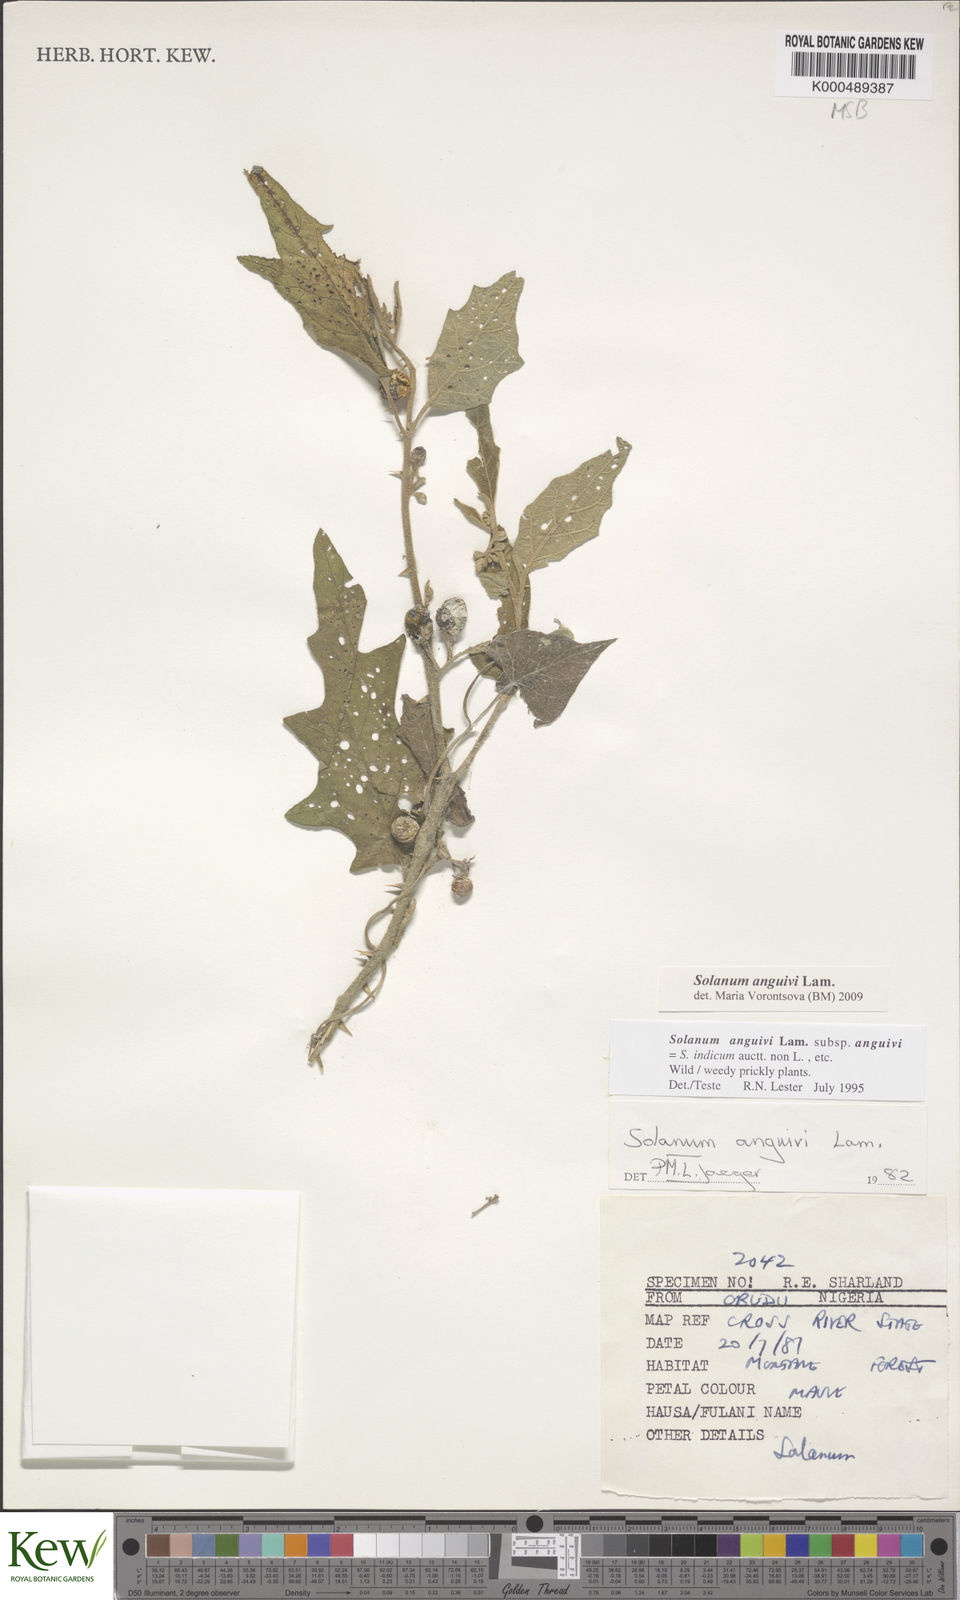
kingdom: Plantae
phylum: Tracheophyta
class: Magnoliopsida
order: Solanales
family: Solanaceae
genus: Solanum
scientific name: Solanum anguivi
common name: Forest bitterberry
